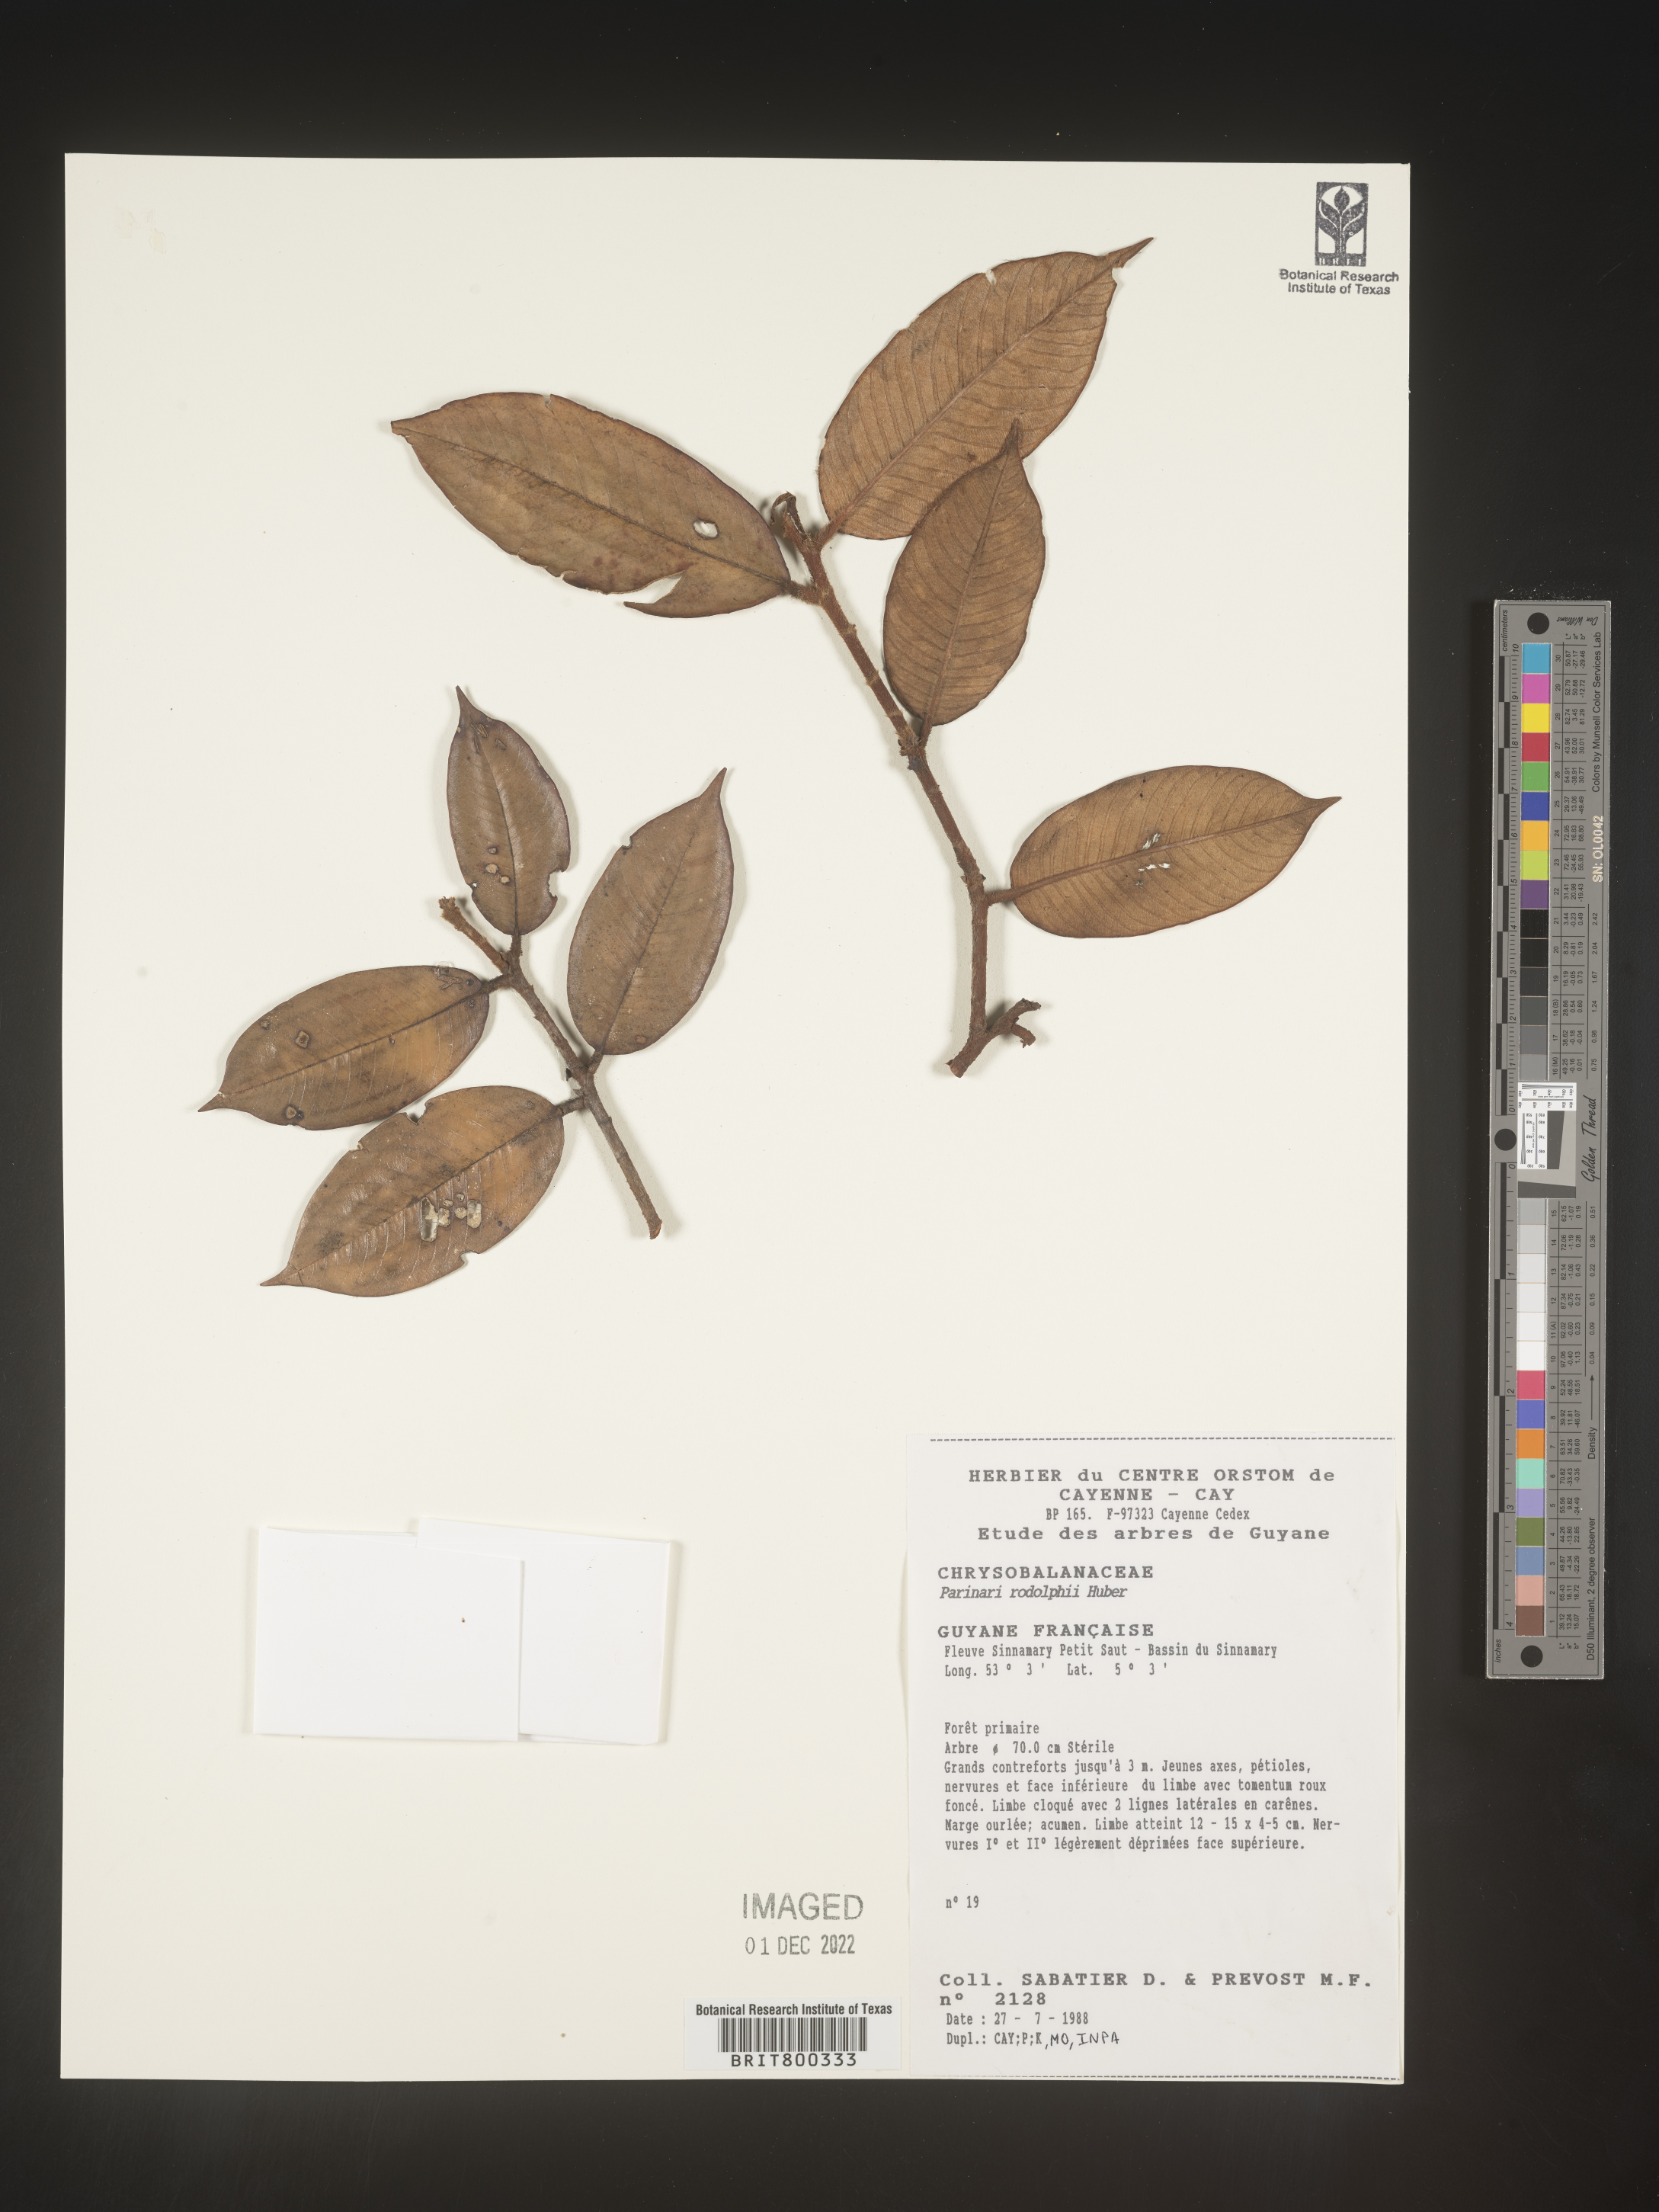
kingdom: Plantae
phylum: Tracheophyta
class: Magnoliopsida
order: Malpighiales
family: Chrysobalanaceae
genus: Parinari
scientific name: Parinari
